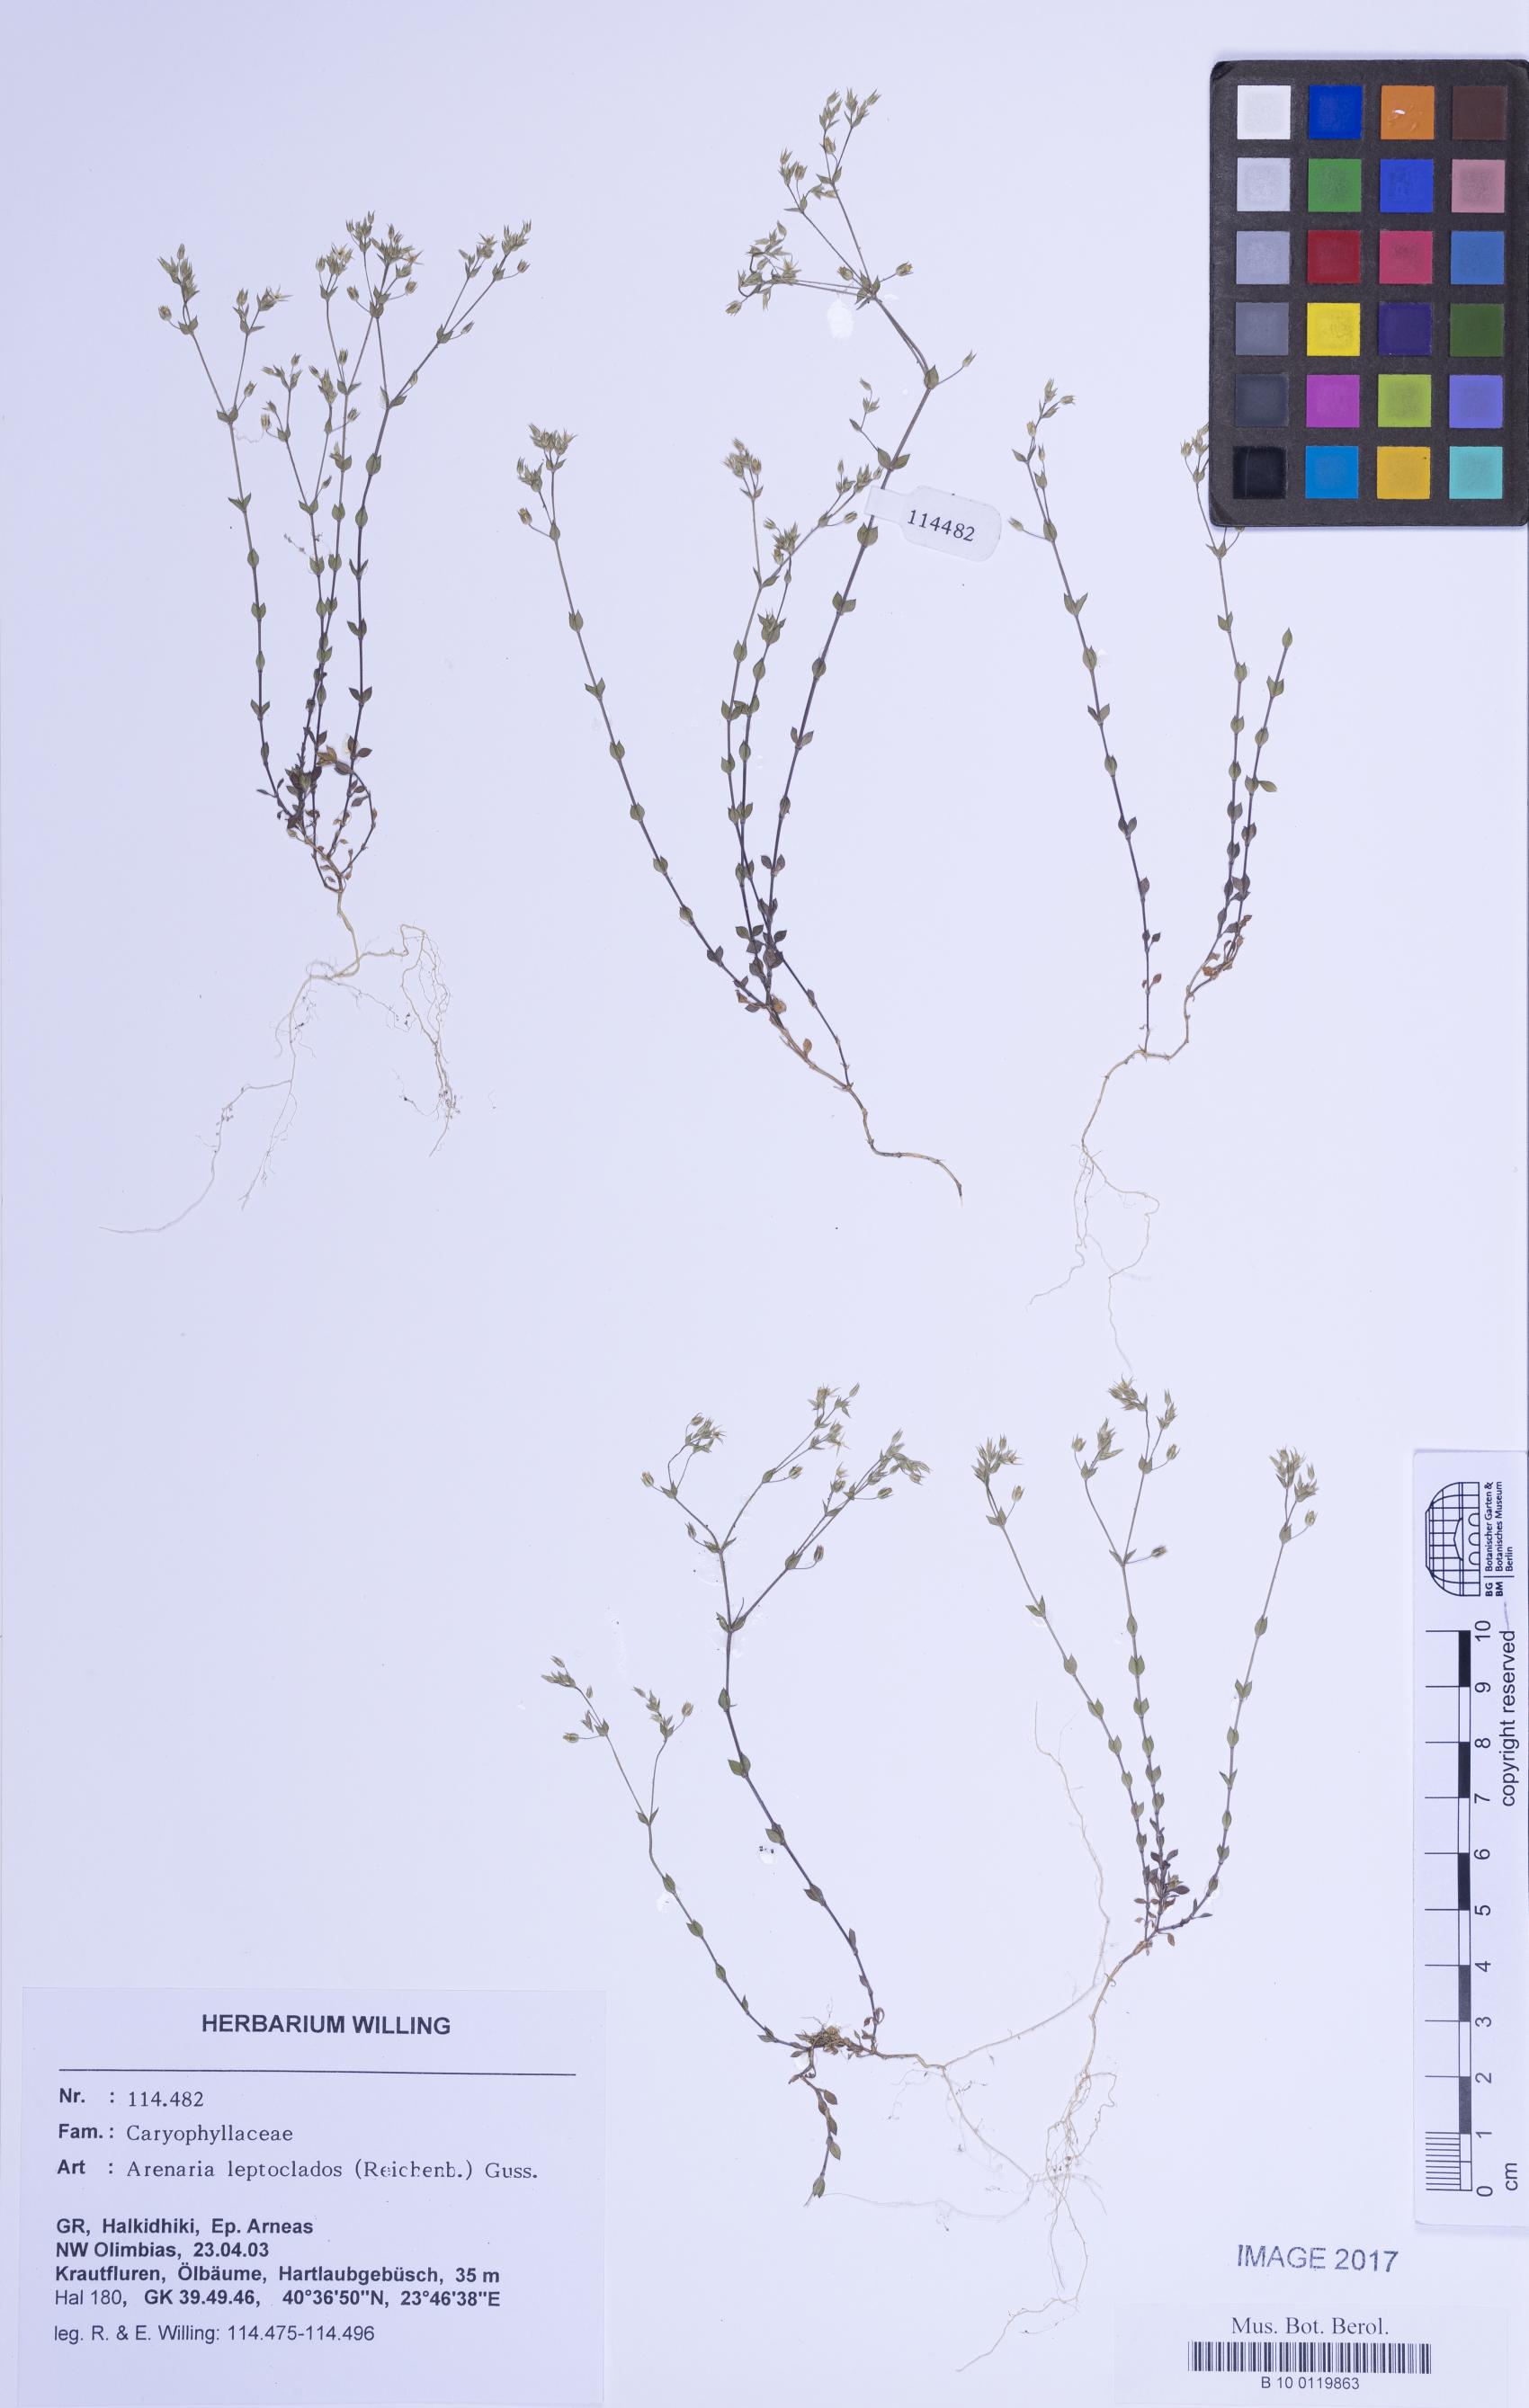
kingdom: Plantae
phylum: Tracheophyta
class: Magnoliopsida
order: Caryophyllales
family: Caryophyllaceae
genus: Arenaria
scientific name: Arenaria leptoclados
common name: Thyme-leaved sandwort
